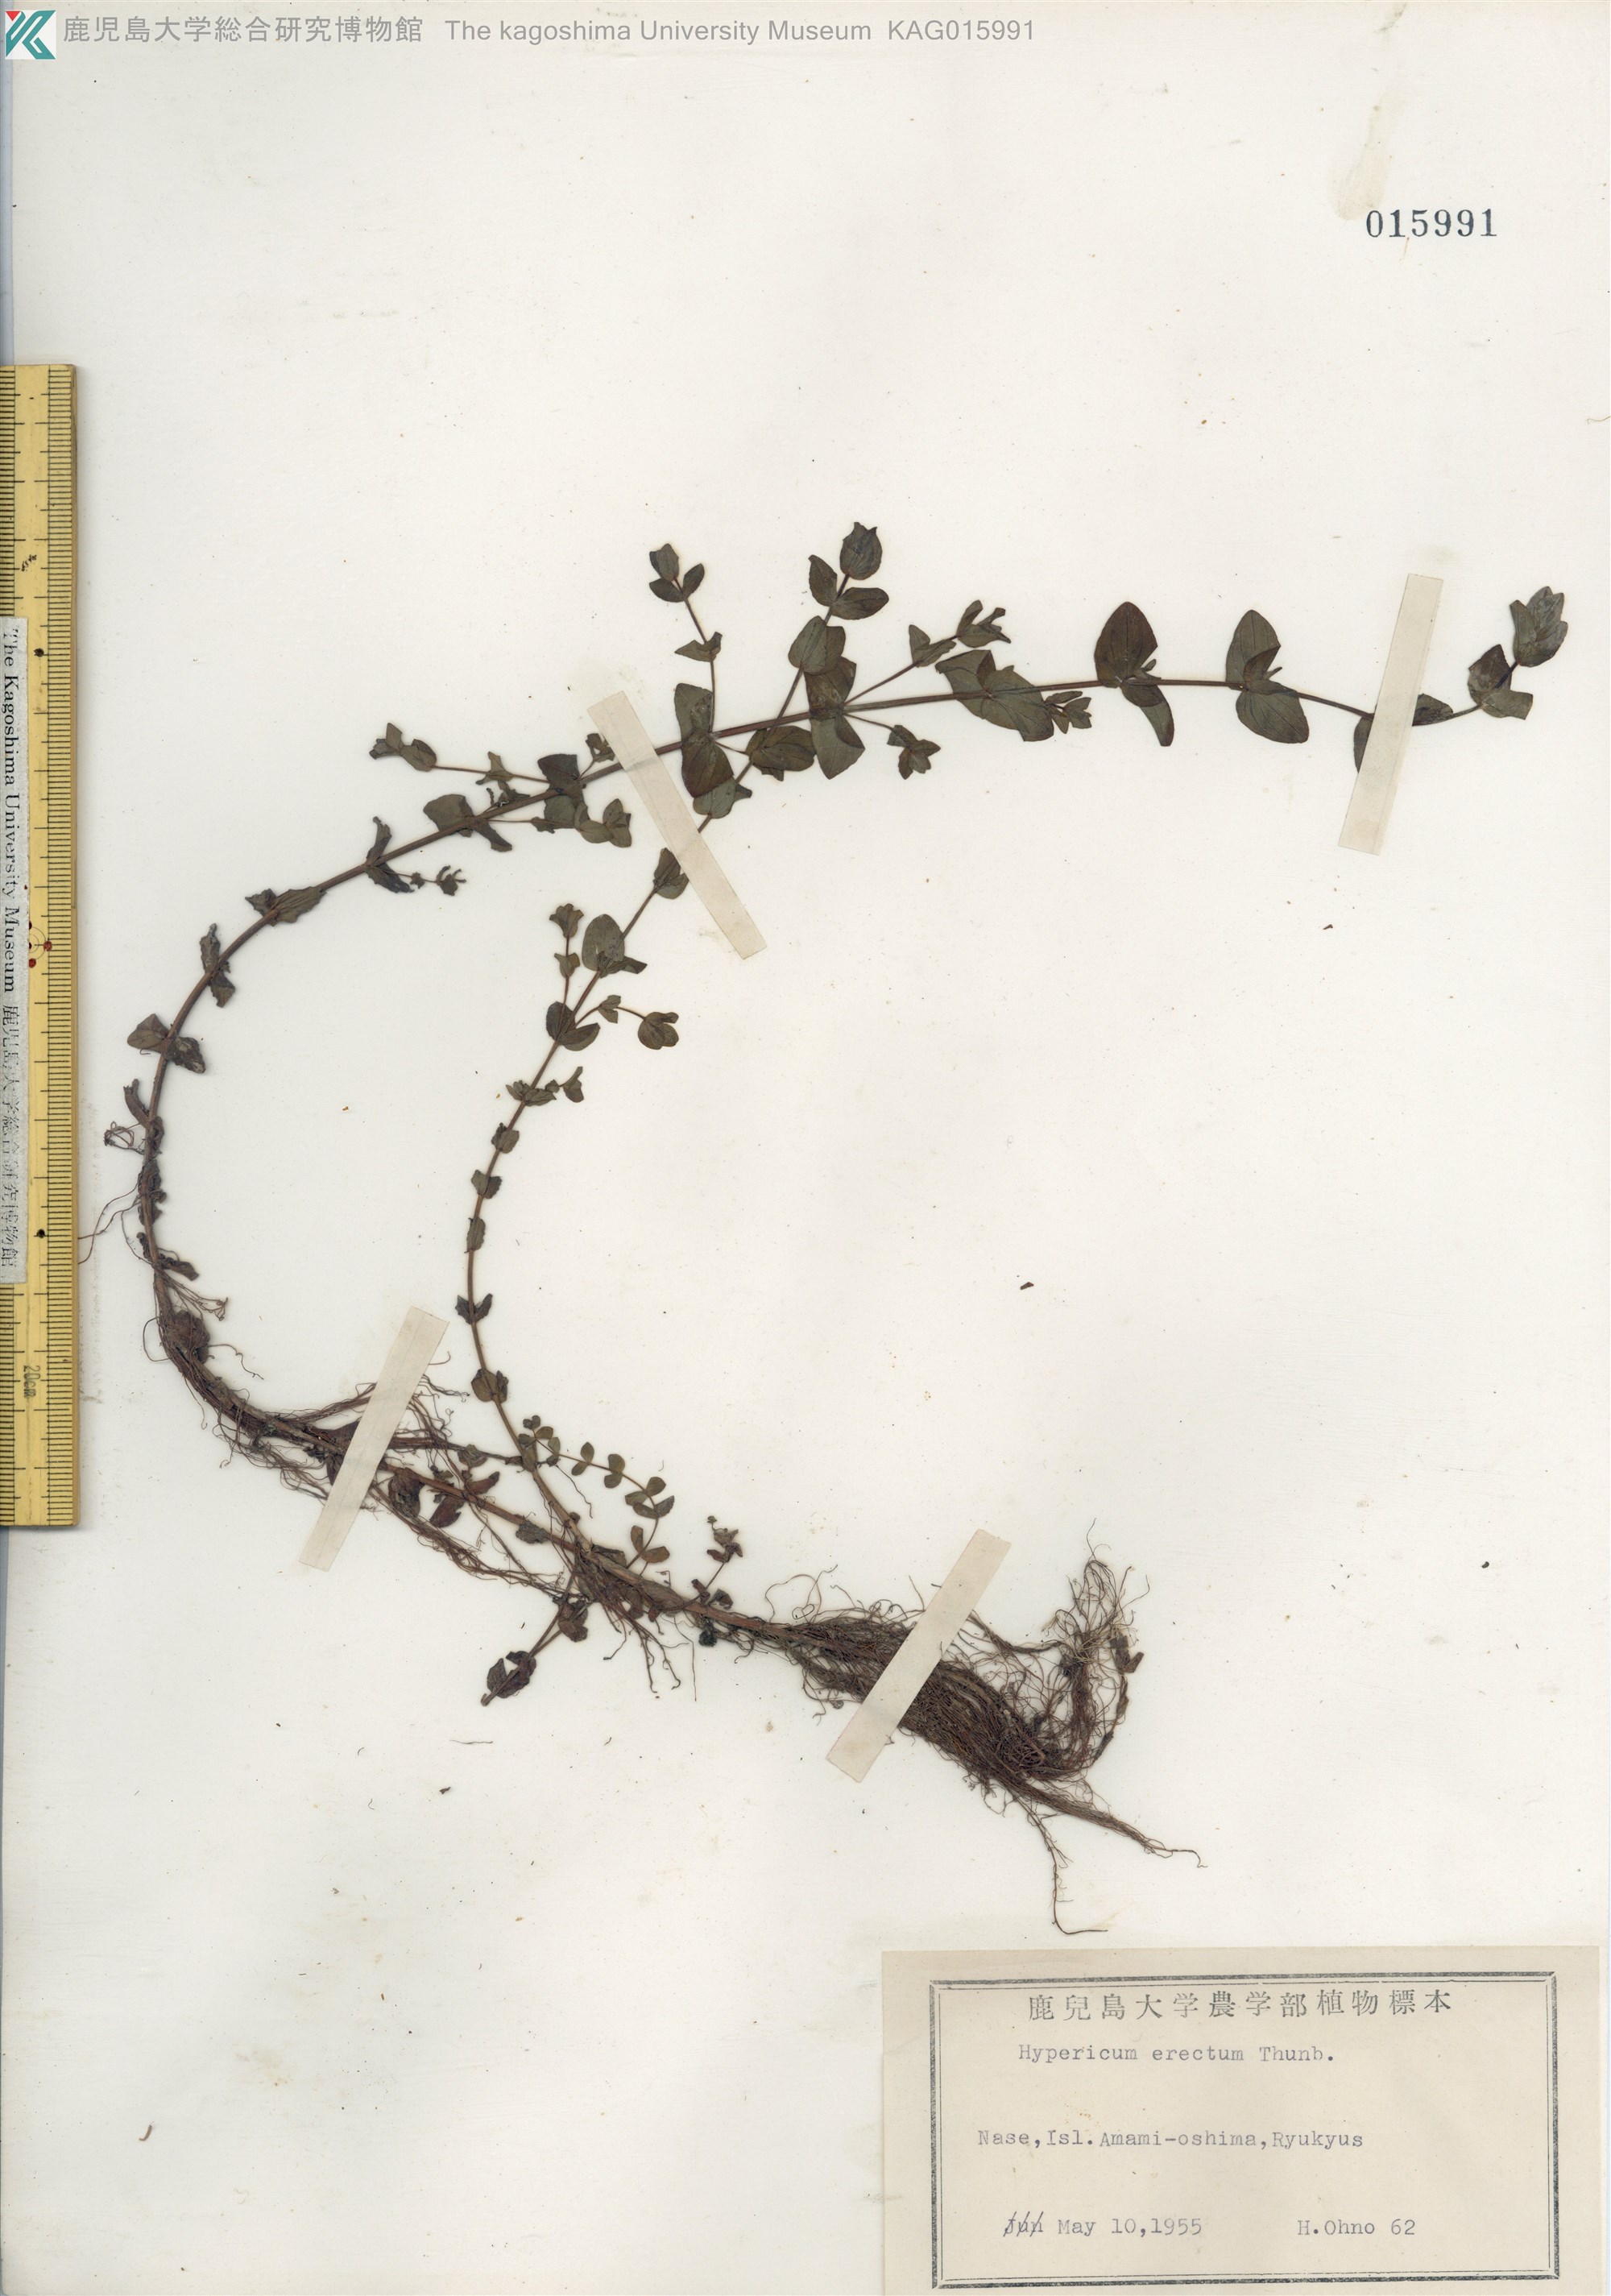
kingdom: Plantae
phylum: Tracheophyta
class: Magnoliopsida
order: Malpighiales
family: Hypericaceae
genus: Hypericum
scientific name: Hypericum japonicum
